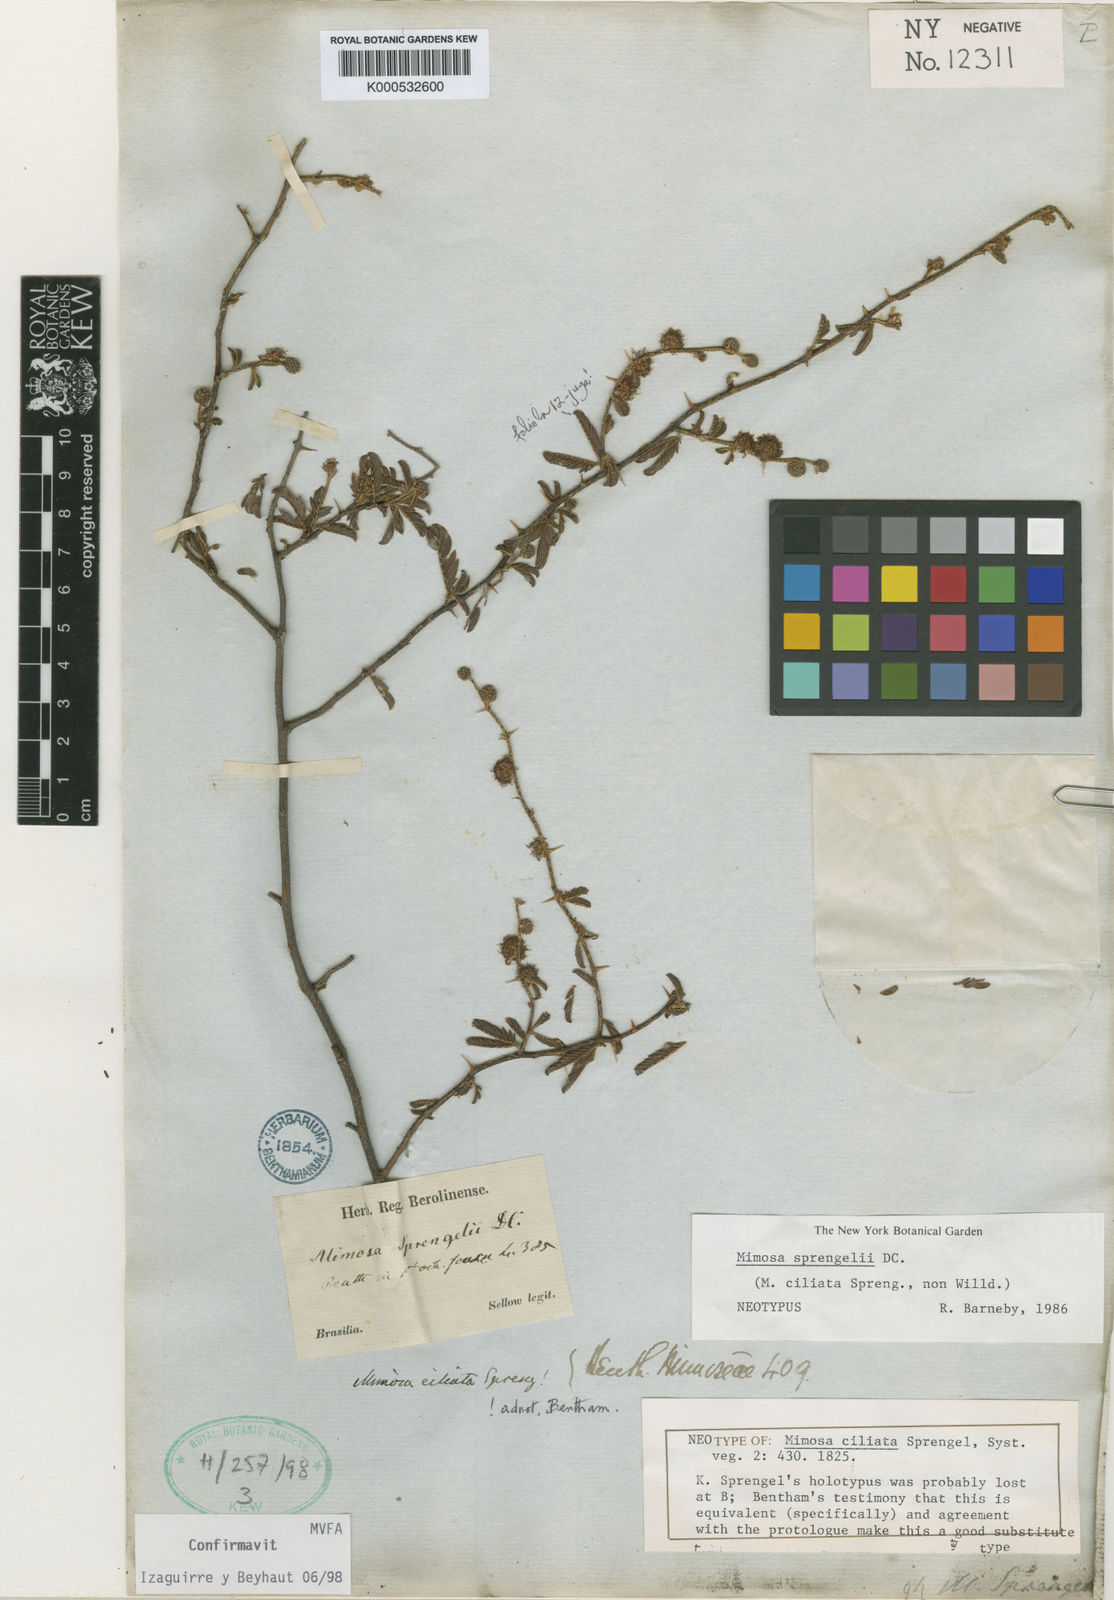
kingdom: Plantae
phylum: Tracheophyta
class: Magnoliopsida
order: Fabales
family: Fabaceae
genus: Mimosa
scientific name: Mimosa sprengelii
